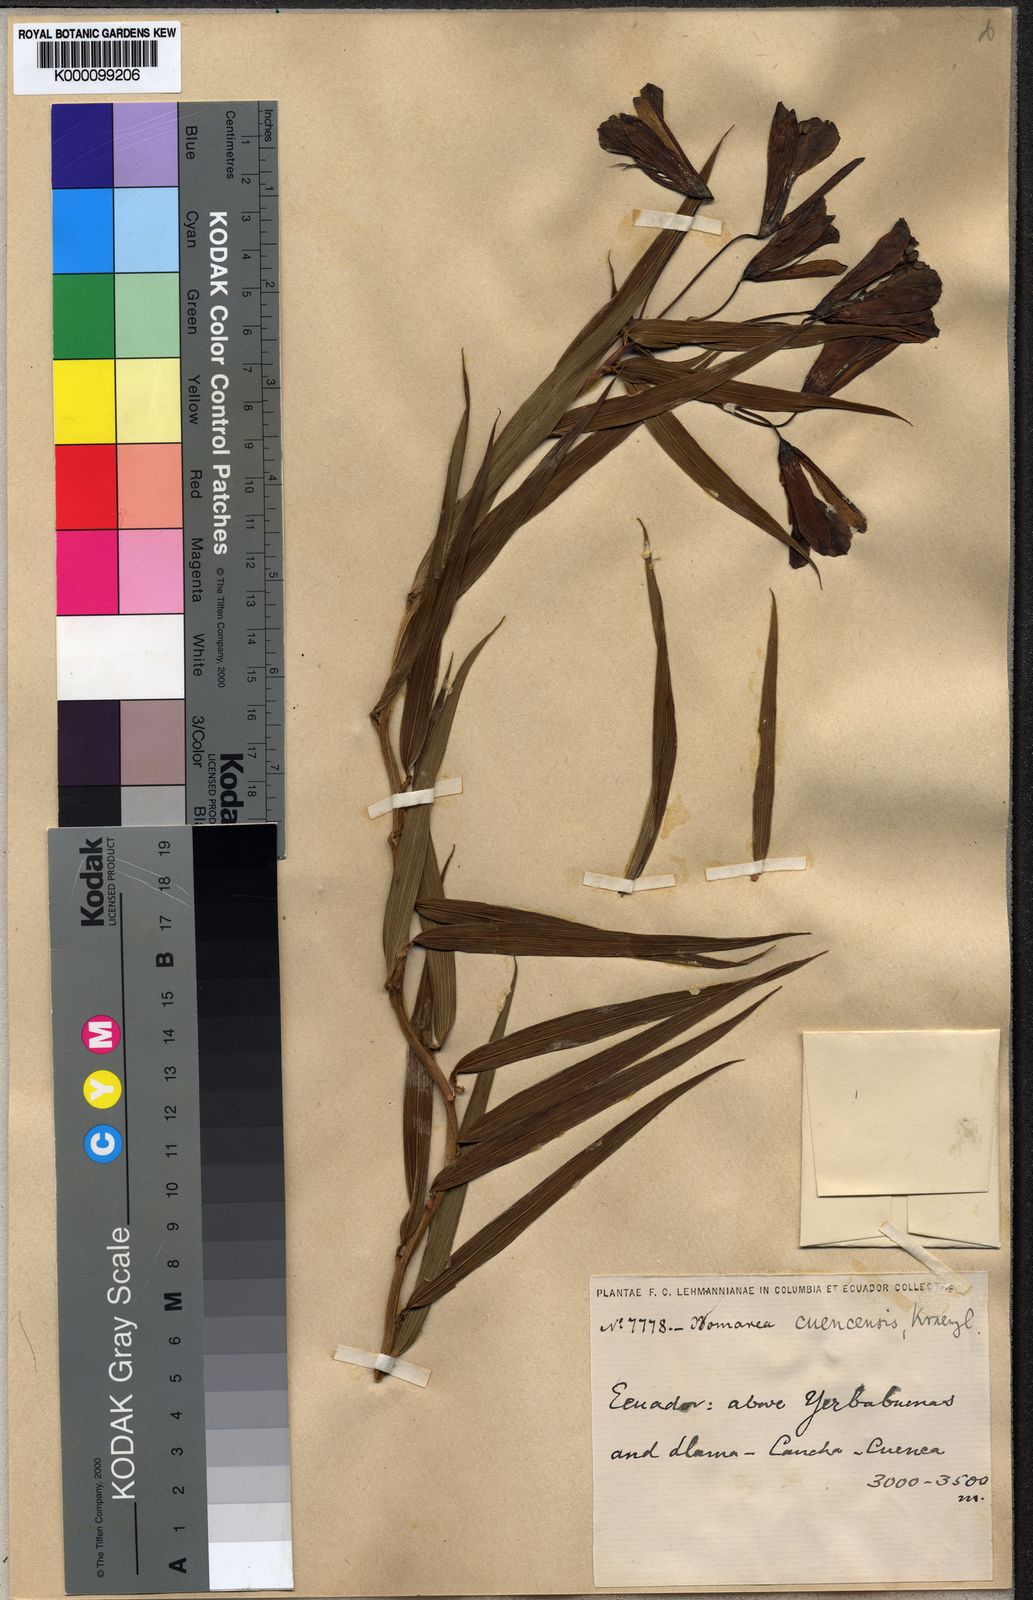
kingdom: Plantae
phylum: Tracheophyta
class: Liliopsida
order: Liliales
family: Alstroemeriaceae
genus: Bomarea
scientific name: Bomarea angulata
